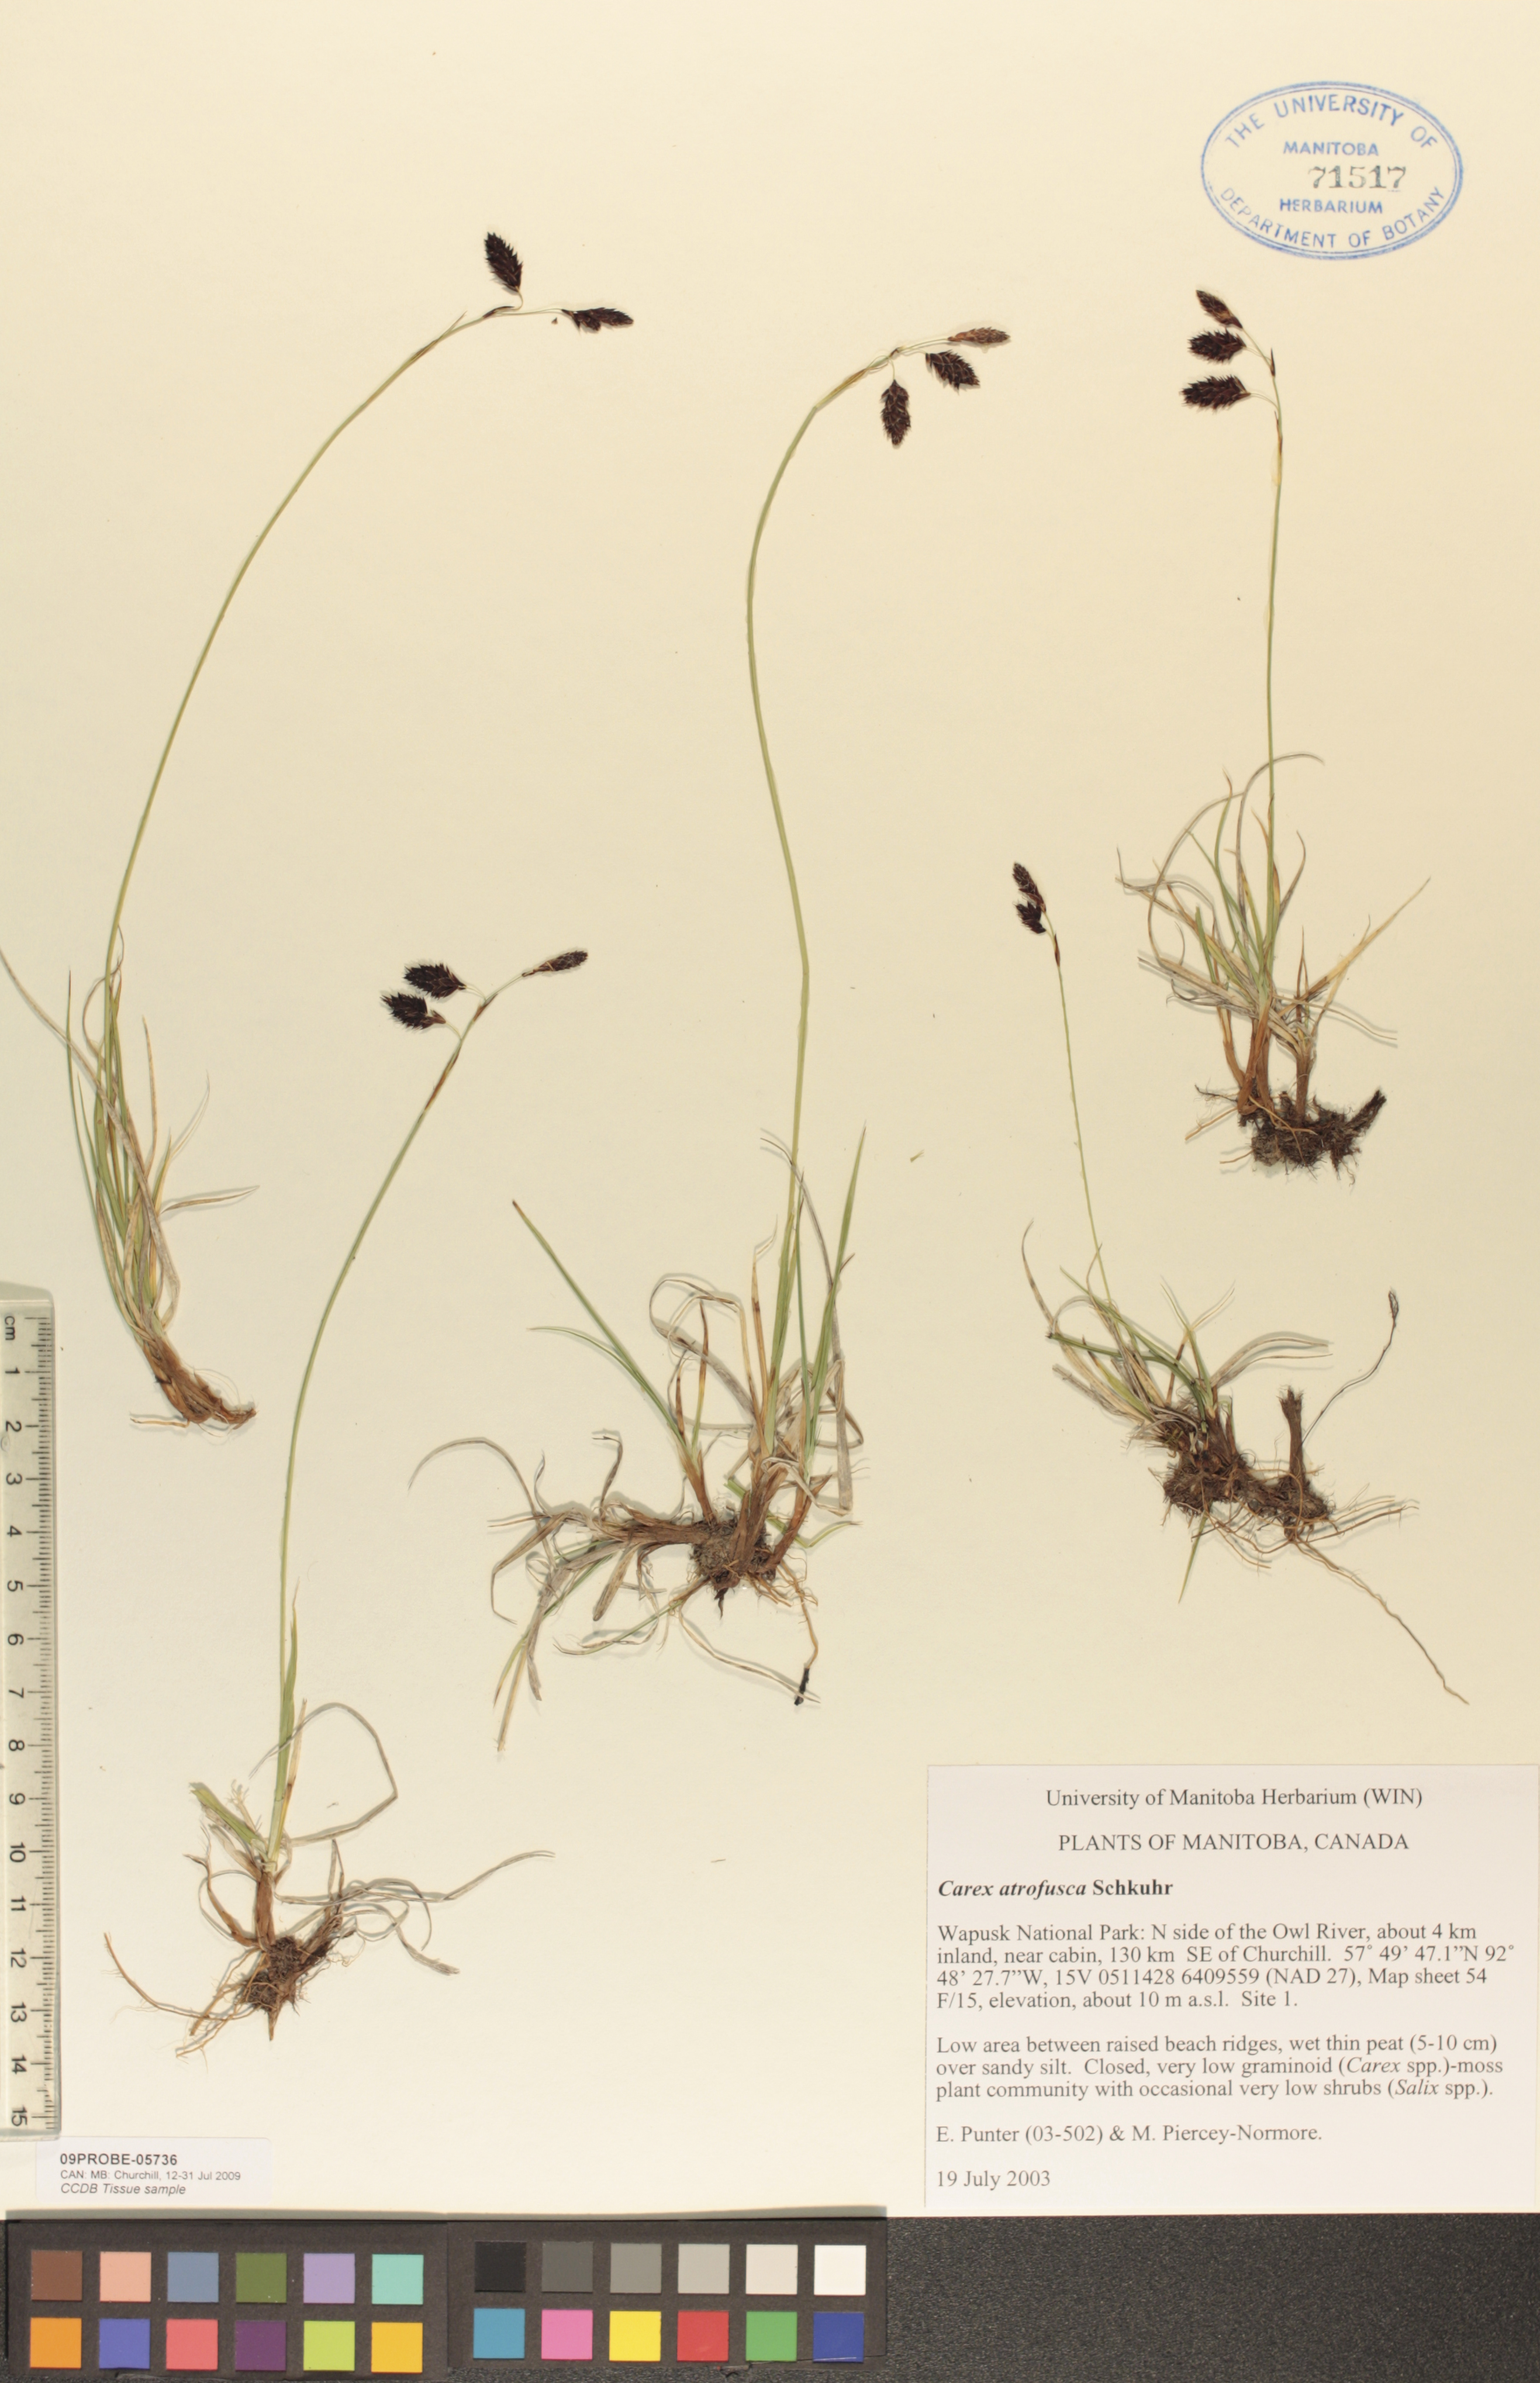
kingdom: Plantae
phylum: Tracheophyta
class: Liliopsida
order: Poales
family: Cyperaceae
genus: Carex
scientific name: Carex pichinchensis
